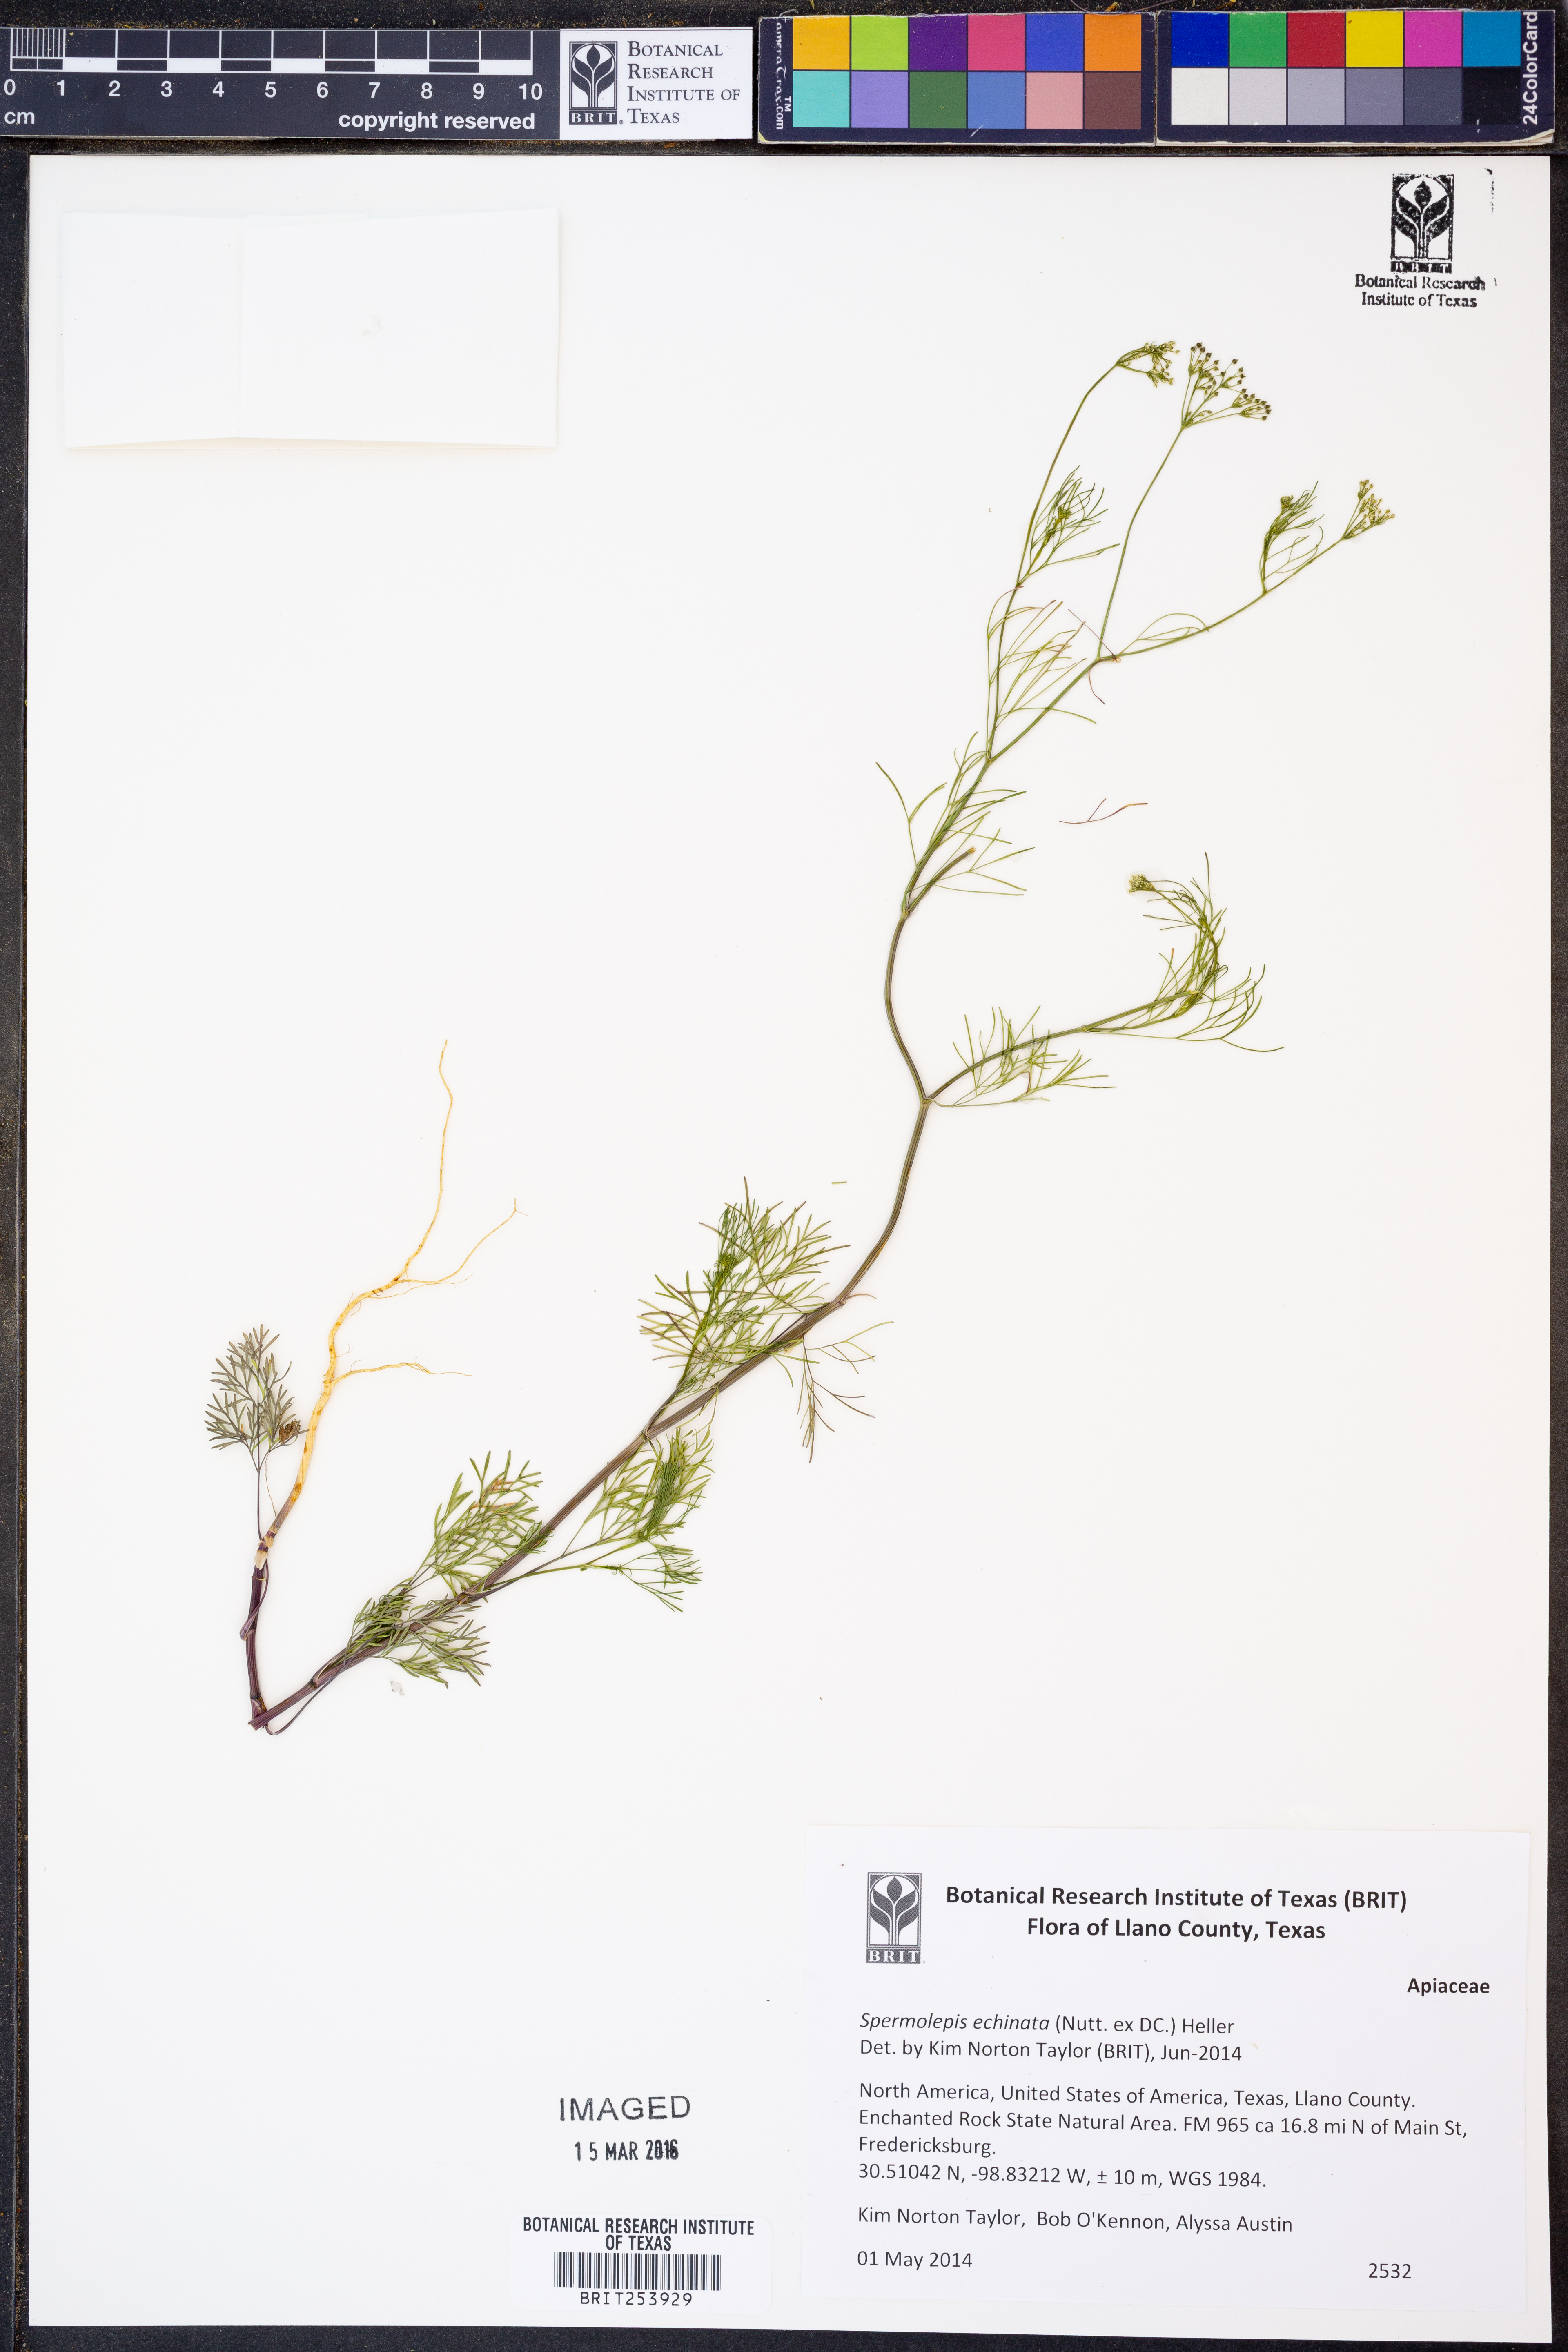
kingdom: Plantae
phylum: Tracheophyta
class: Magnoliopsida
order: Apiales
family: Apiaceae
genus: Spermolepis
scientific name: Spermolepis echinata
